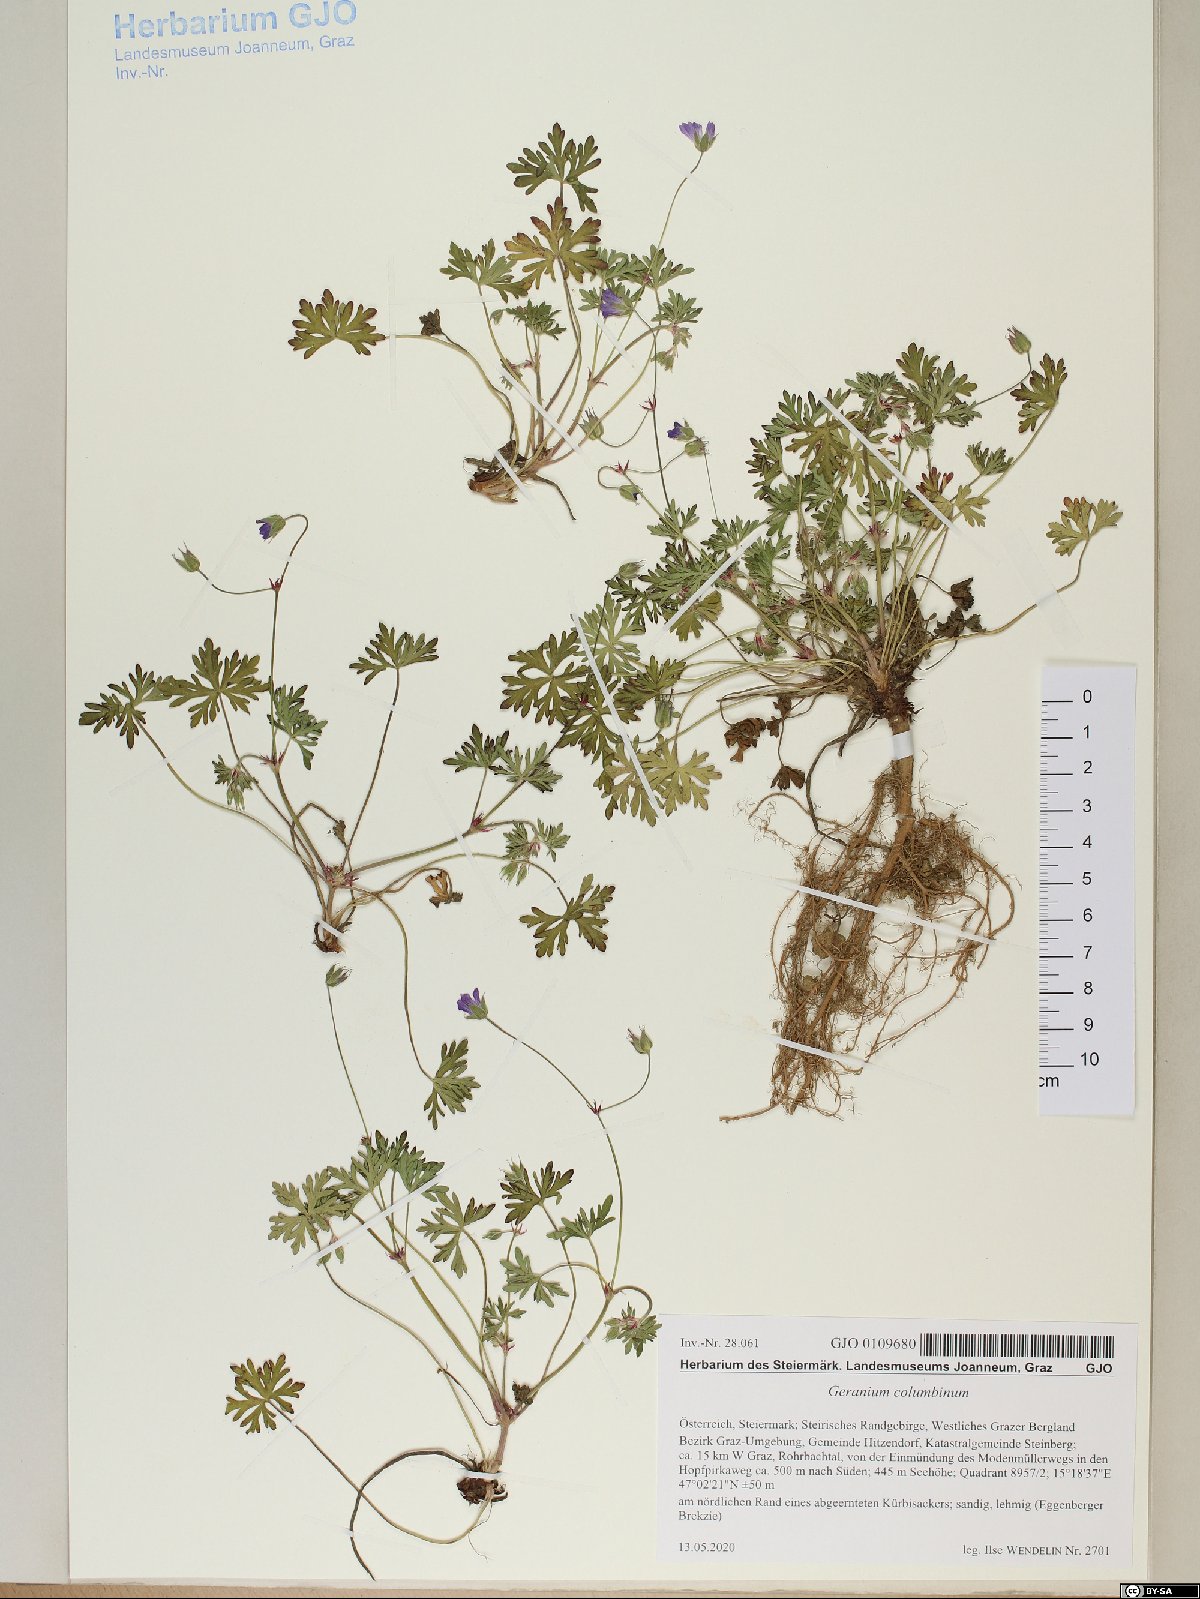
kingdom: Plantae
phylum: Tracheophyta
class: Magnoliopsida
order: Geraniales
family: Geraniaceae
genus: Geranium
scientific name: Geranium columbinum
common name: Long-stalked crane's-bill
